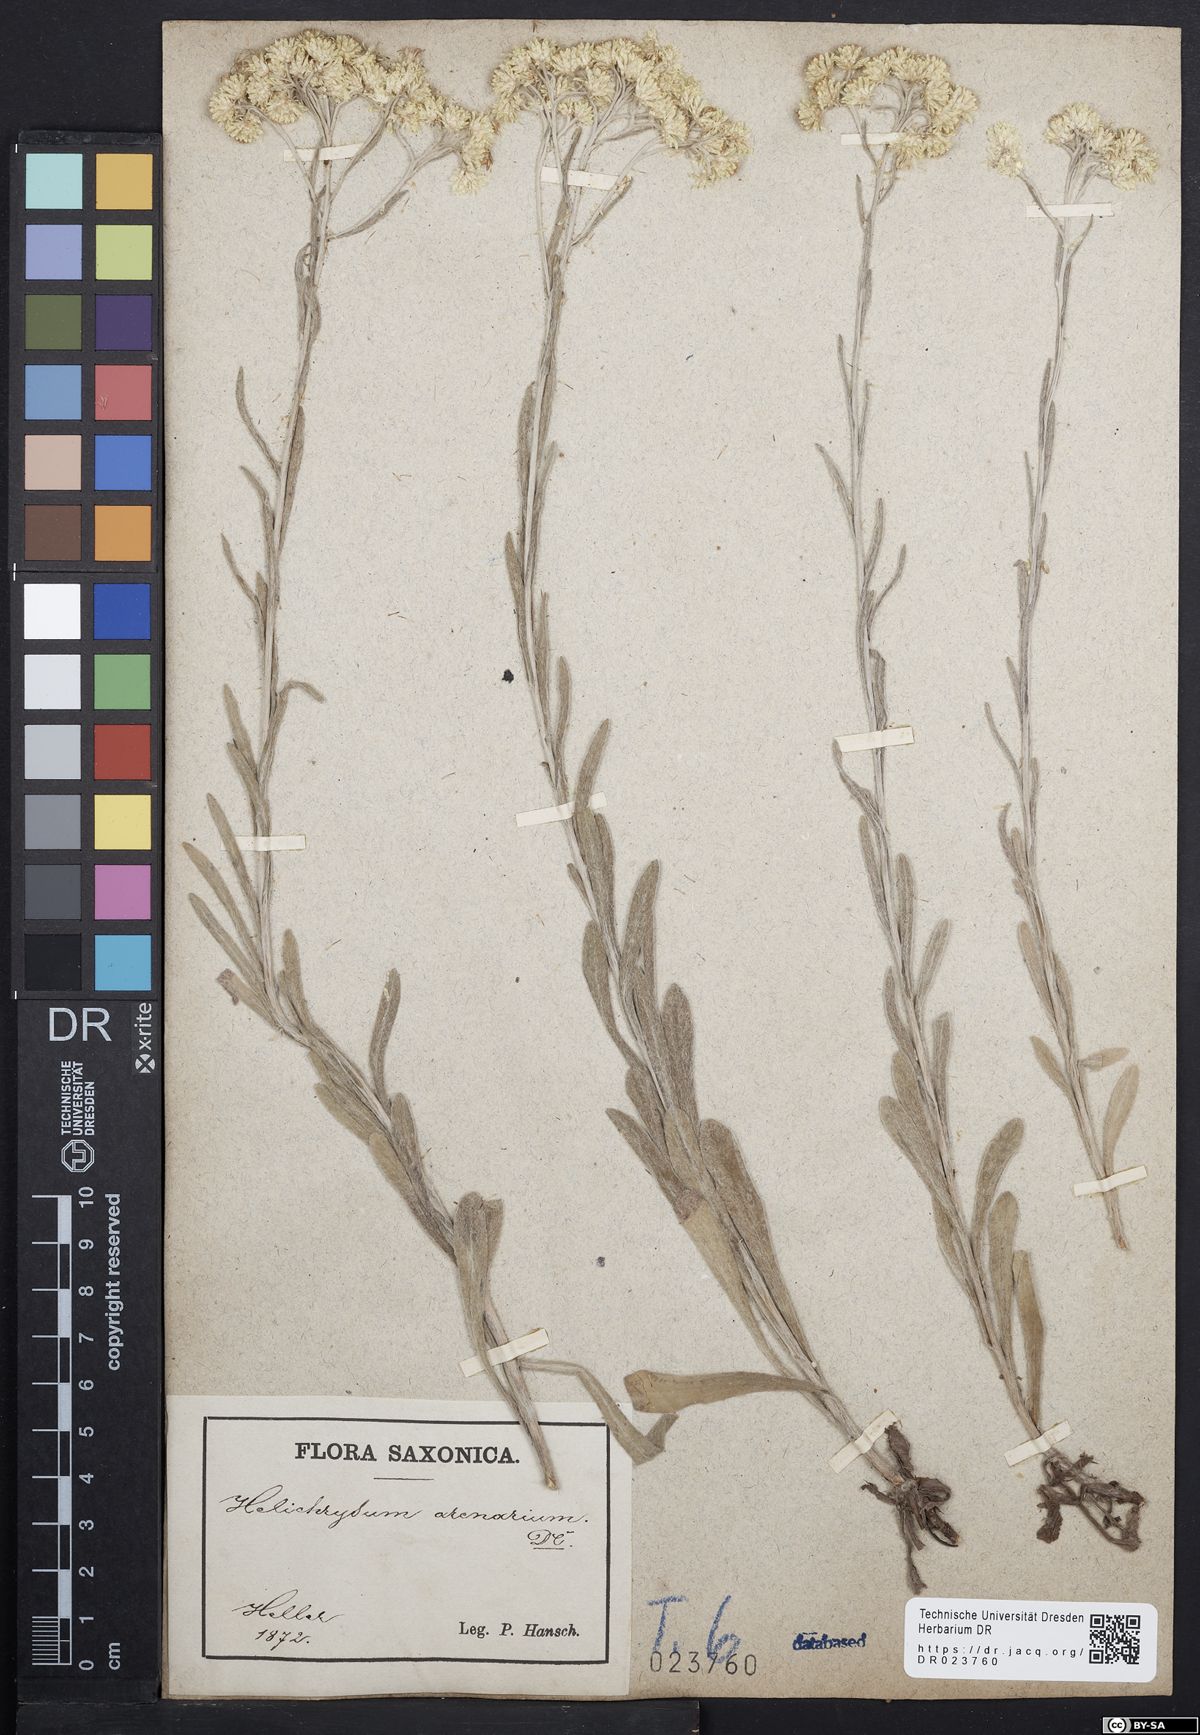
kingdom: Plantae
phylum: Tracheophyta
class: Magnoliopsida
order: Asterales
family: Asteraceae
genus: Helichrysum
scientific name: Helichrysum arenarium
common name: Strawflower
